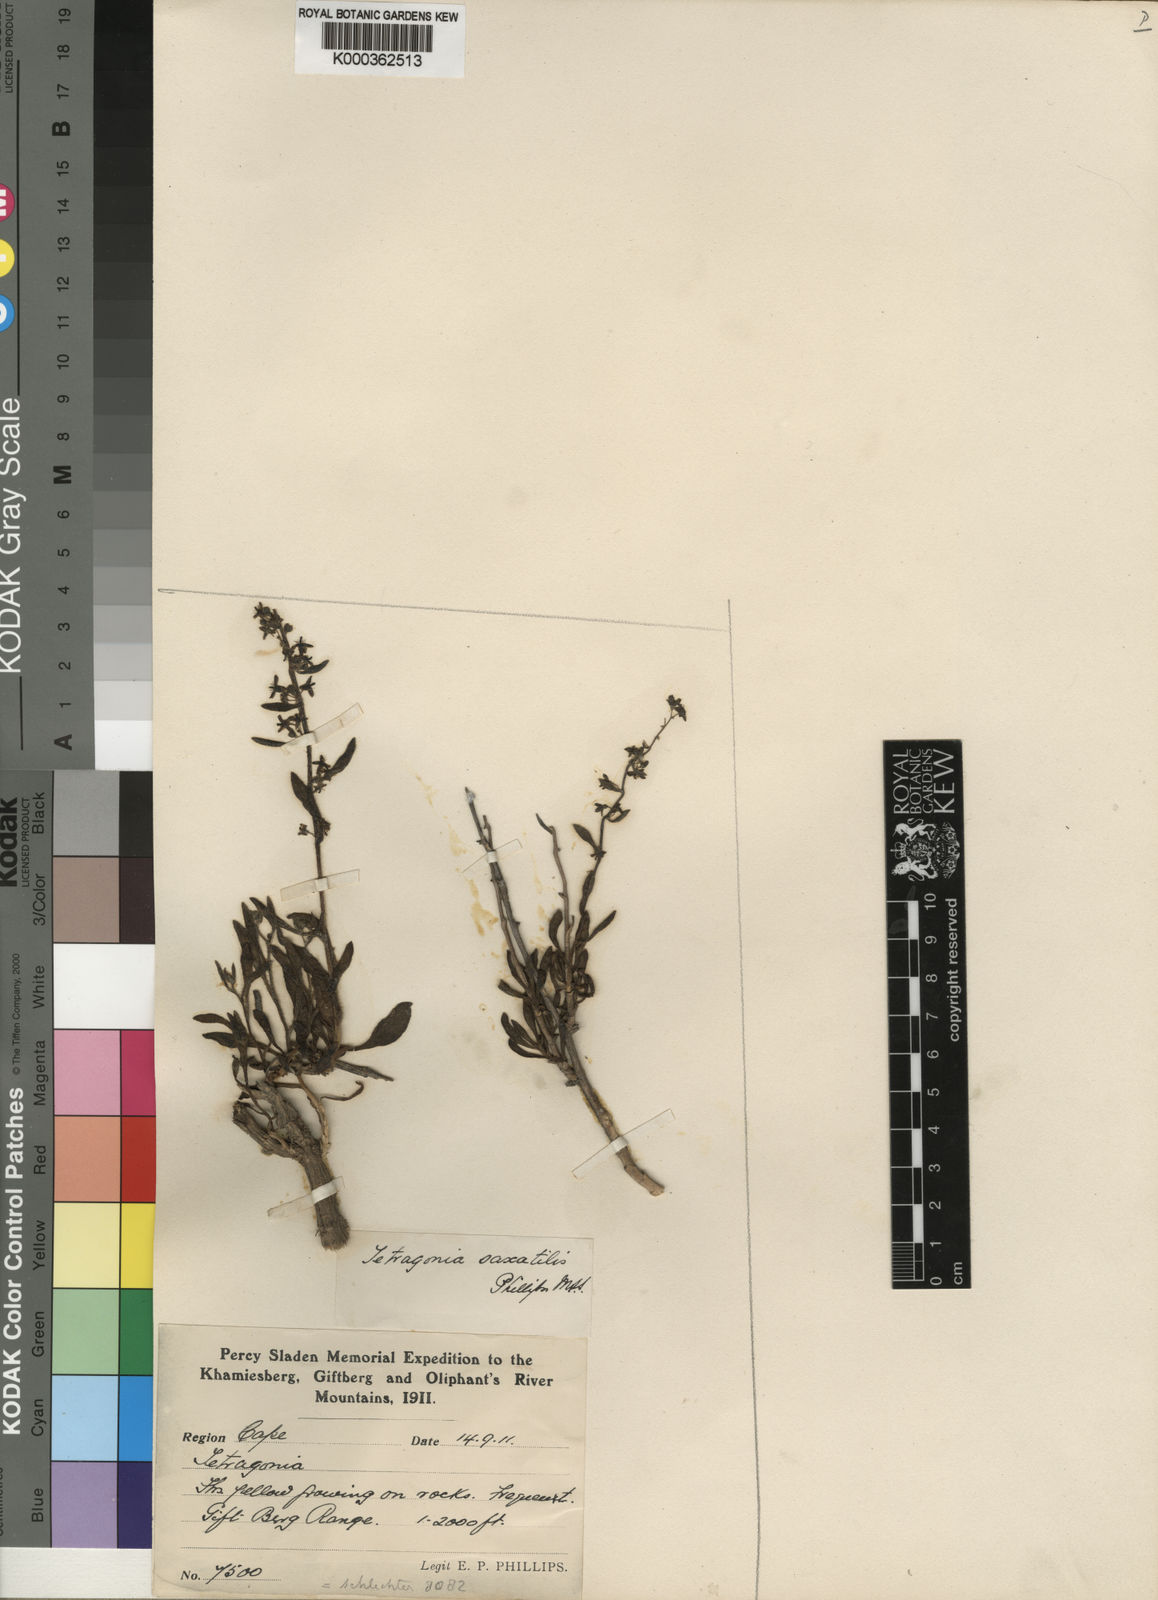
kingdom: Plantae
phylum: Tracheophyta
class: Magnoliopsida
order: Caryophyllales
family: Aizoaceae
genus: Tetragonia
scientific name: Tetragonia sarcophylla
